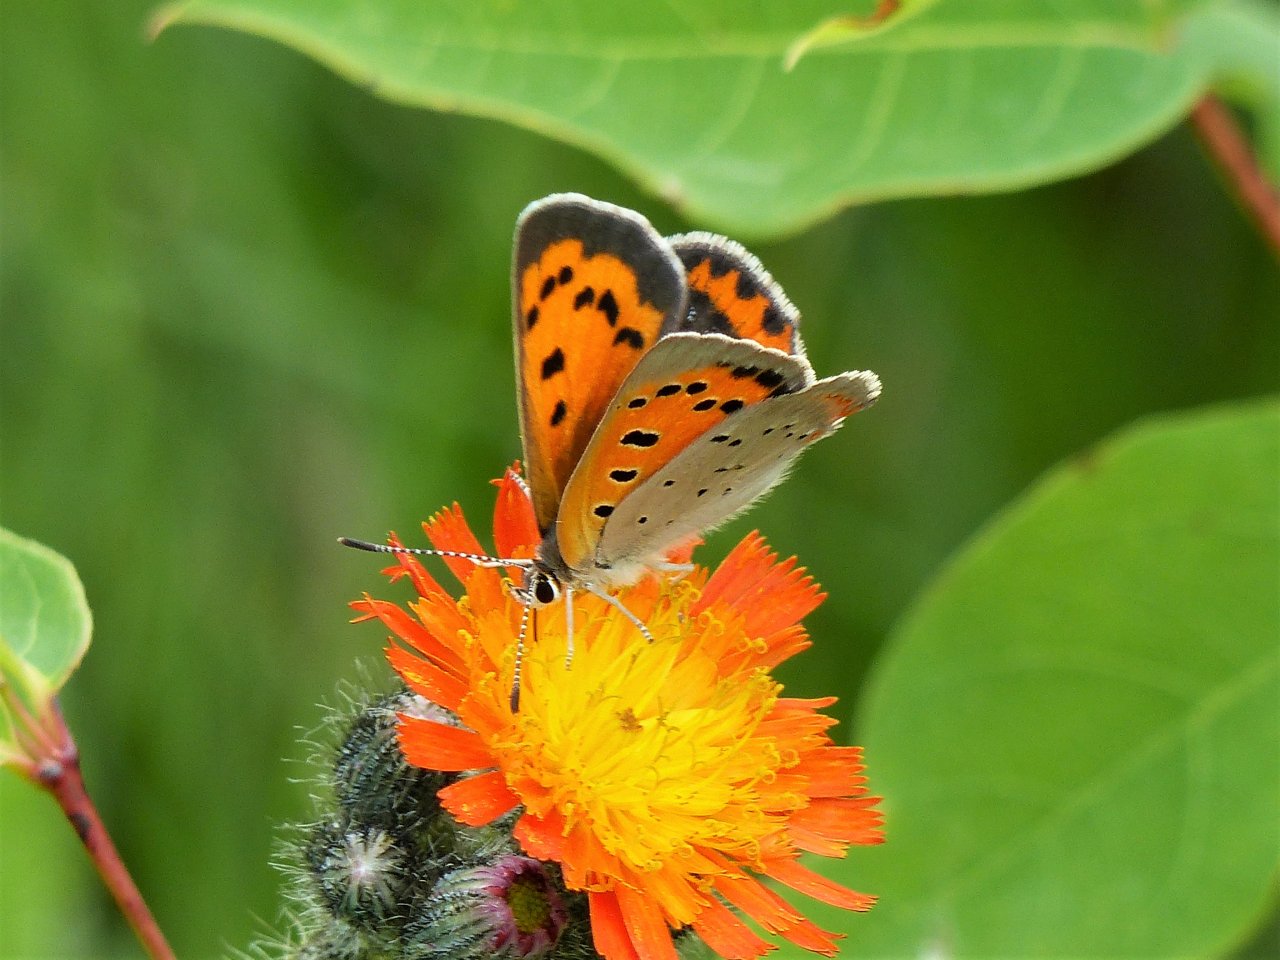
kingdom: Animalia
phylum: Arthropoda
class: Insecta
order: Lepidoptera
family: Lycaenidae
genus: Lycaena
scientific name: Lycaena phlaeas
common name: American Copper
